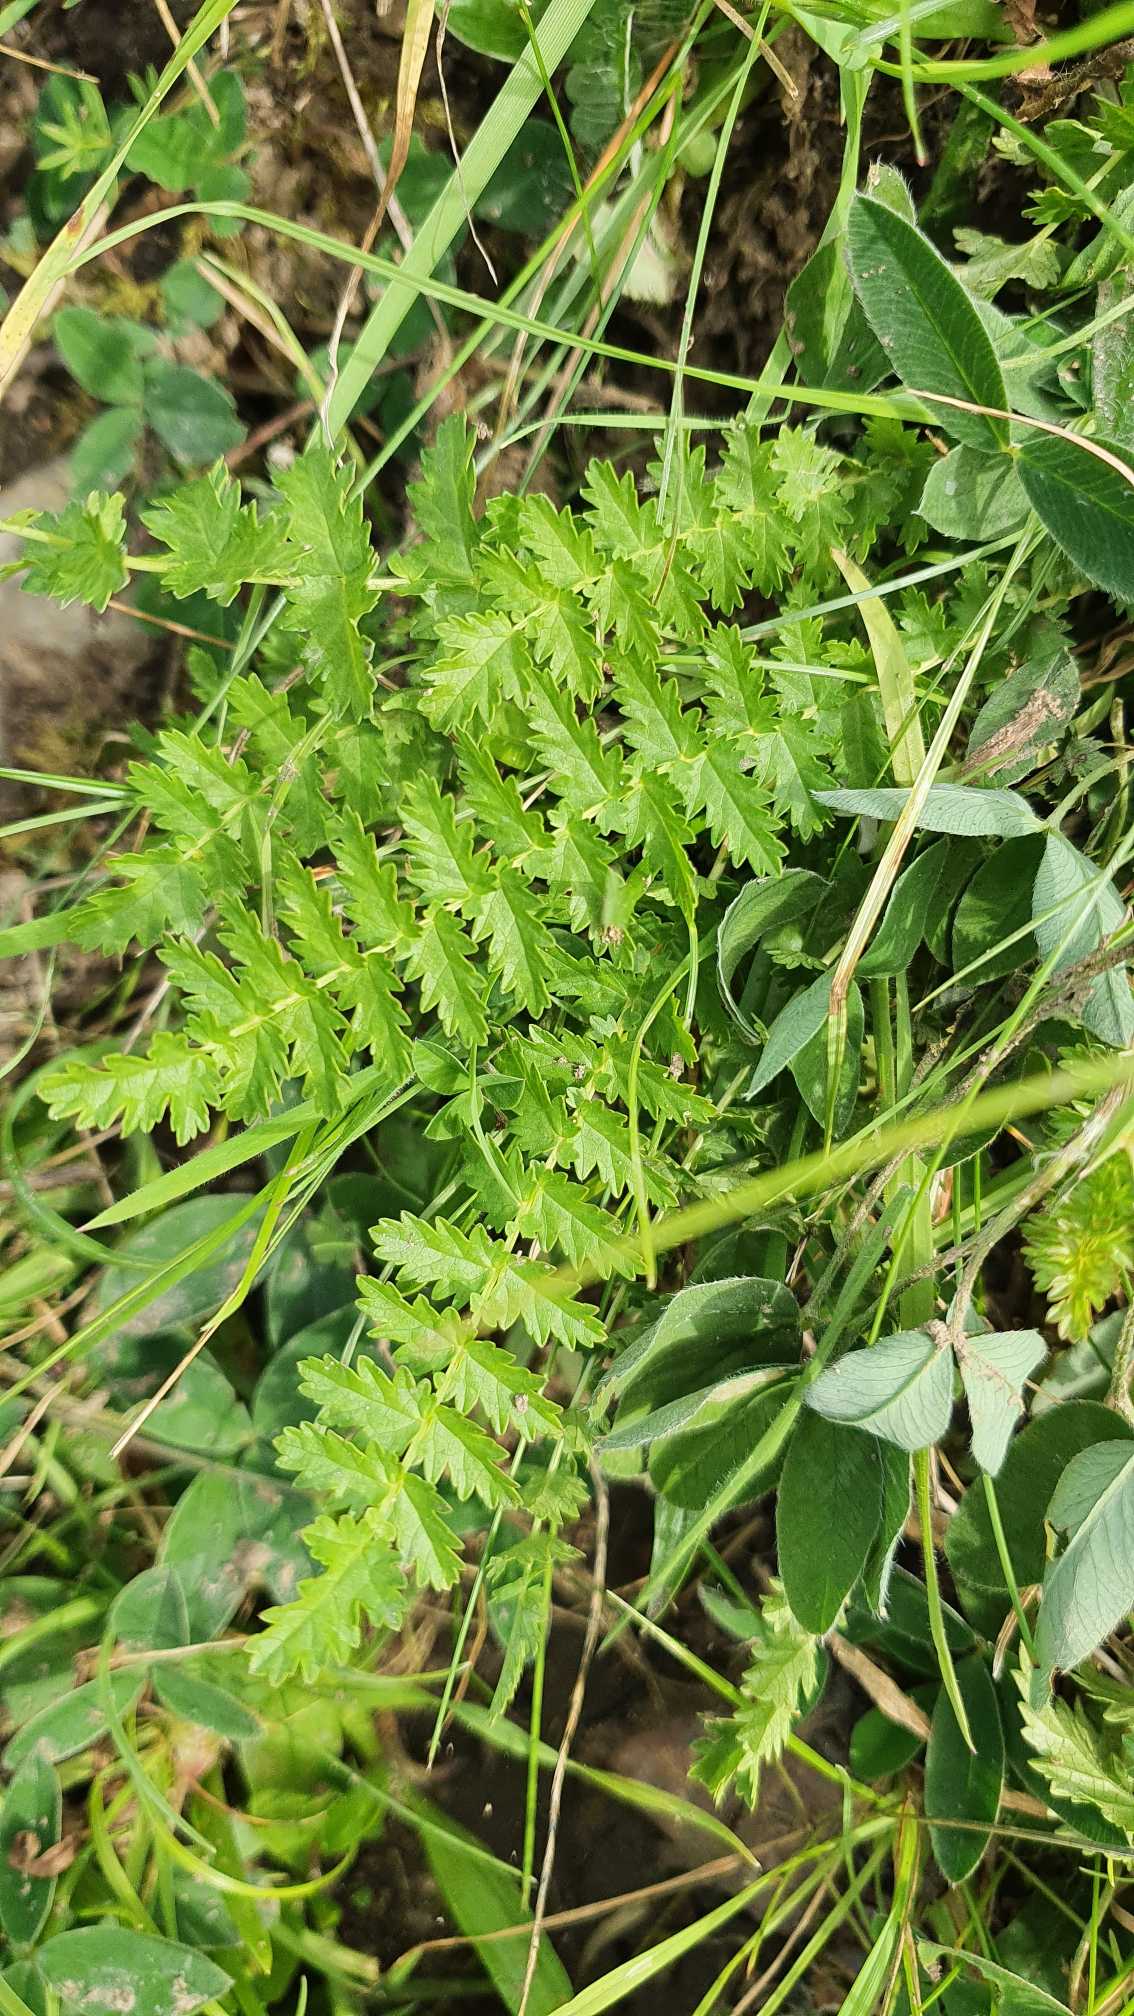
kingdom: Plantae
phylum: Tracheophyta
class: Magnoliopsida
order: Rosales
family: Rosaceae
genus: Filipendula
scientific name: Filipendula vulgaris
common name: Knoldet mjødurt
